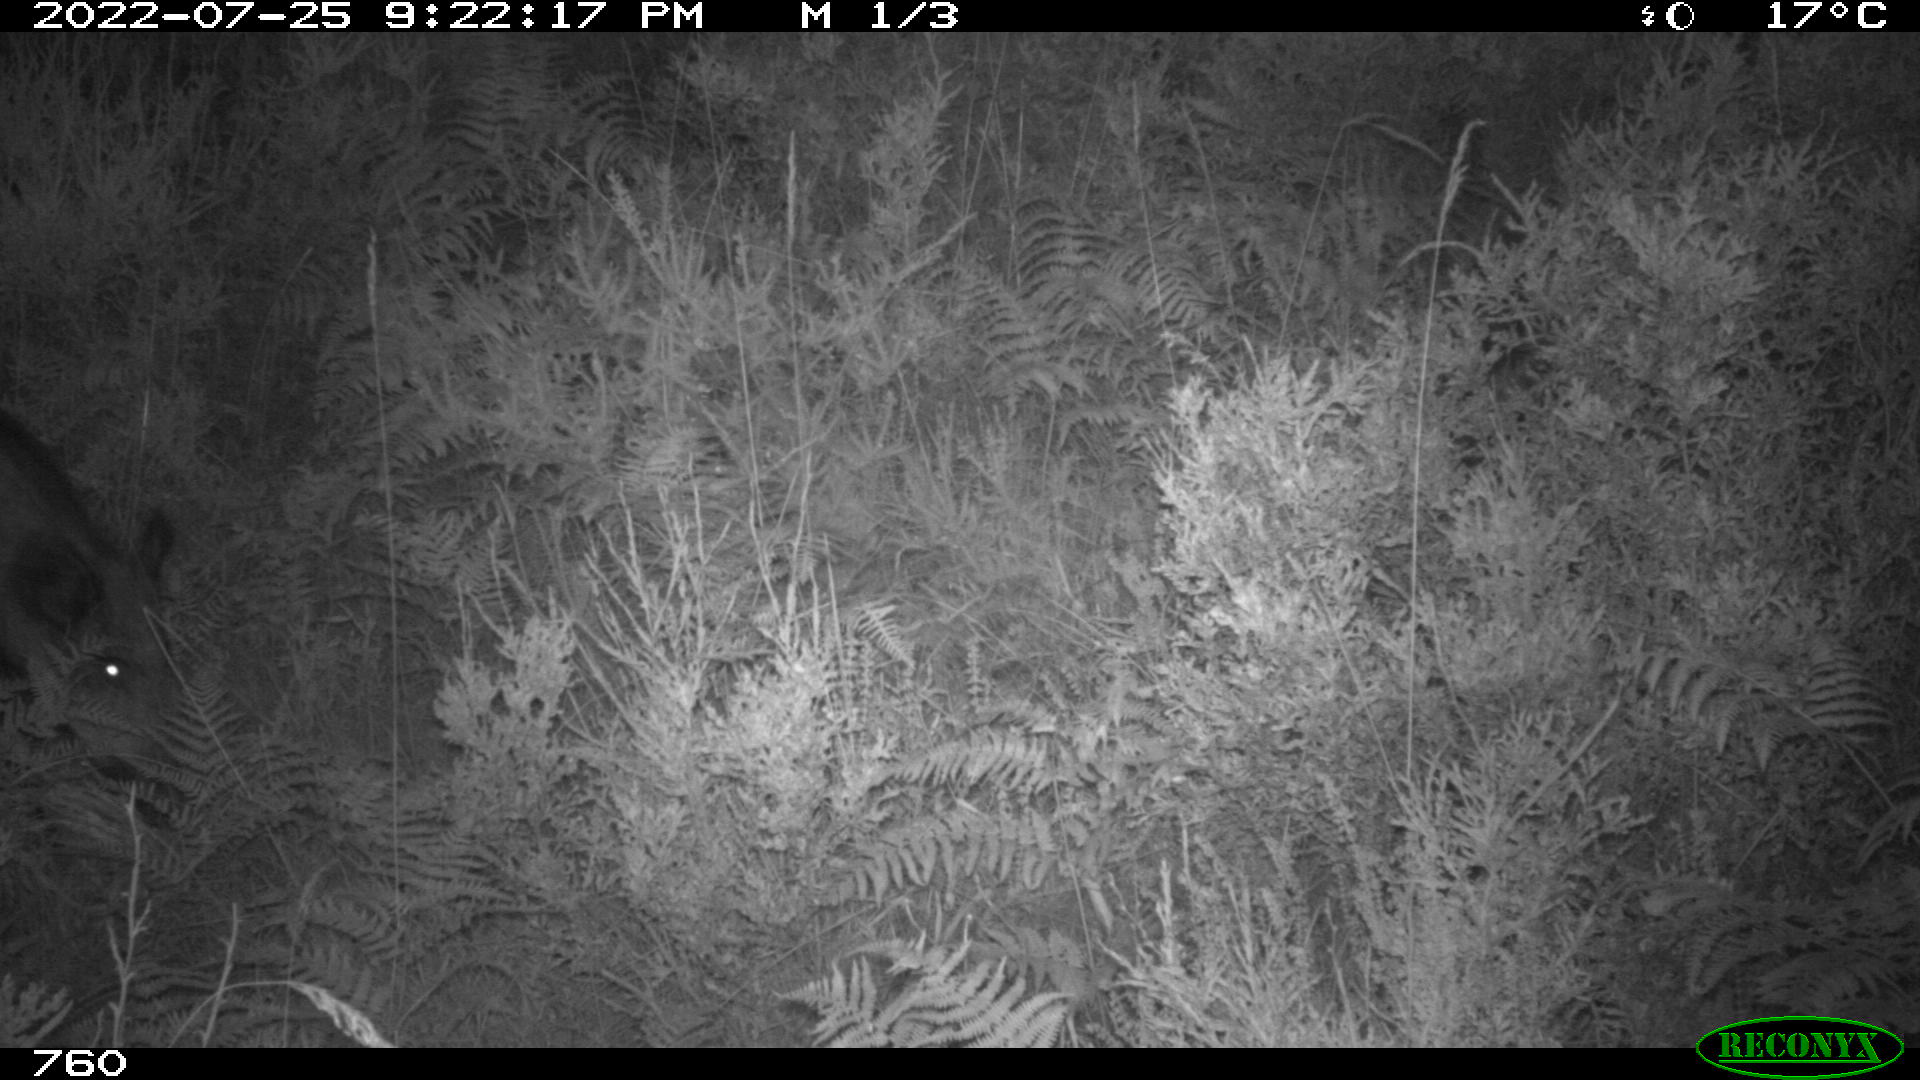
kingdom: Animalia
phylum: Chordata
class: Mammalia
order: Artiodactyla
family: Suidae
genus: Sus
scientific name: Sus scrofa
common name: Wild boar
